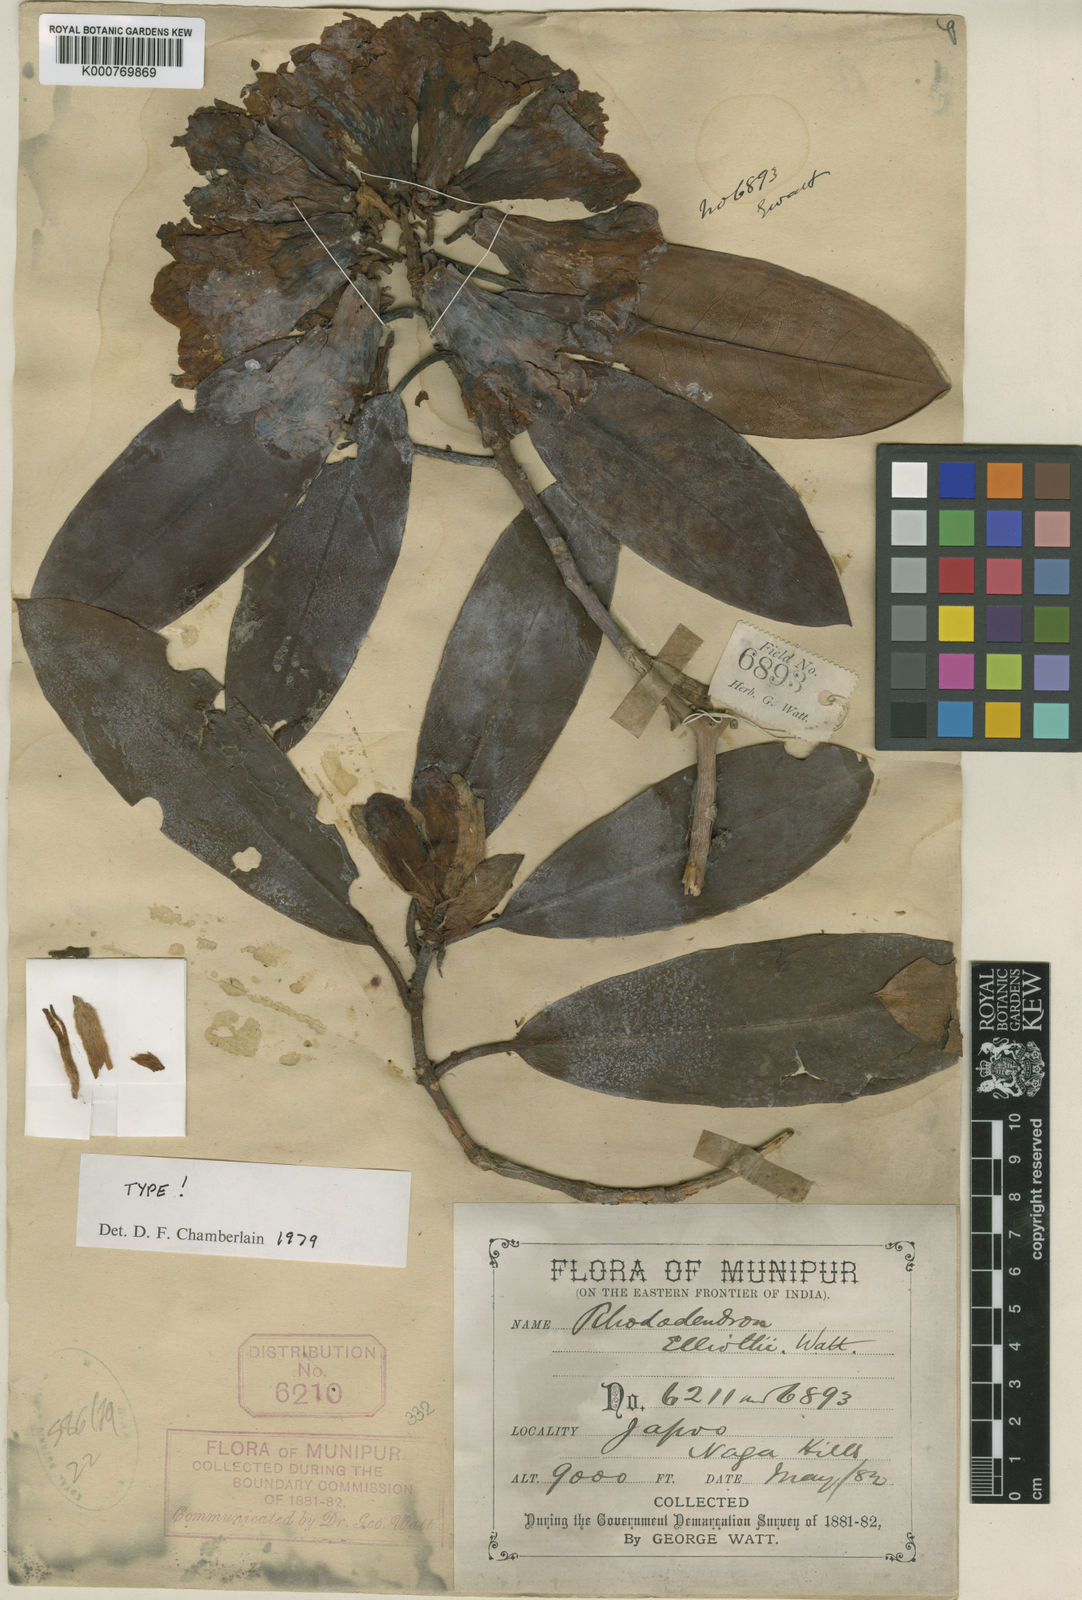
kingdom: Plantae
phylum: Tracheophyta
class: Magnoliopsida
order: Ericales
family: Ericaceae
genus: Rhododendron
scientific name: Rhododendron
